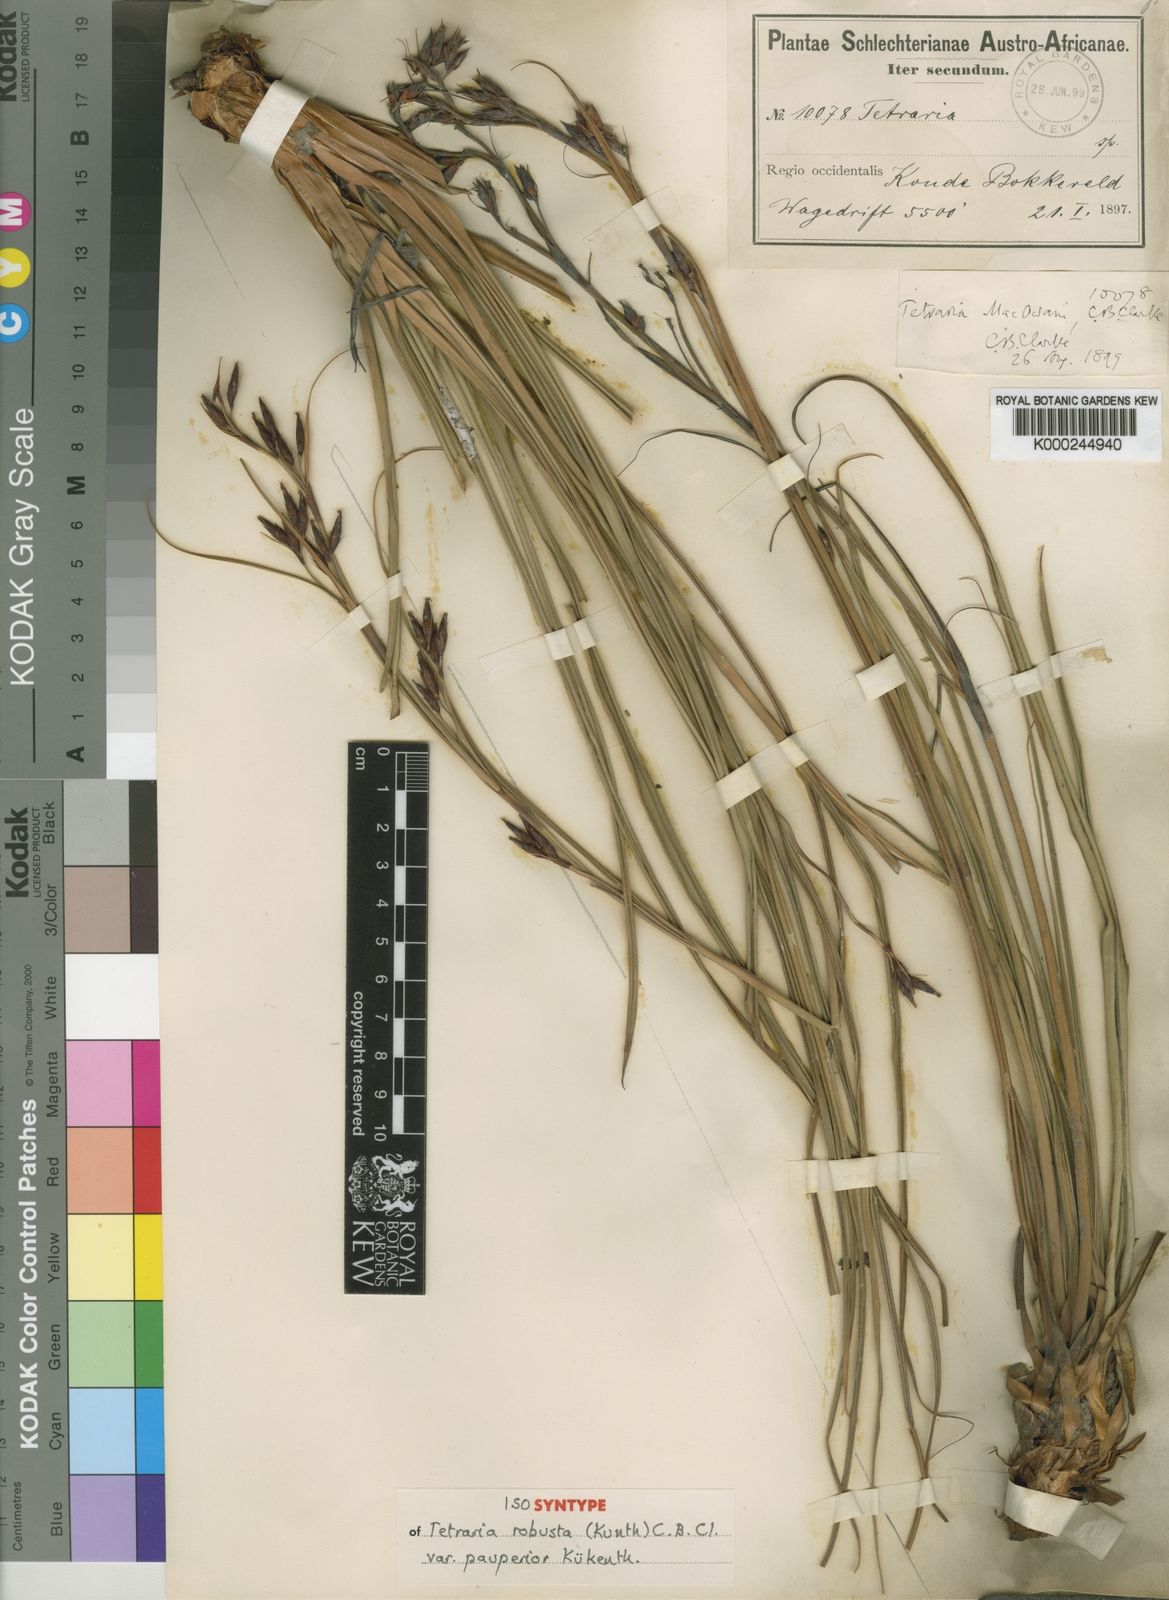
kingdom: Plantae
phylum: Tracheophyta
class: Liliopsida
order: Poales
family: Cyperaceae
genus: Tetraria
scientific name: Tetraria macowaniana
